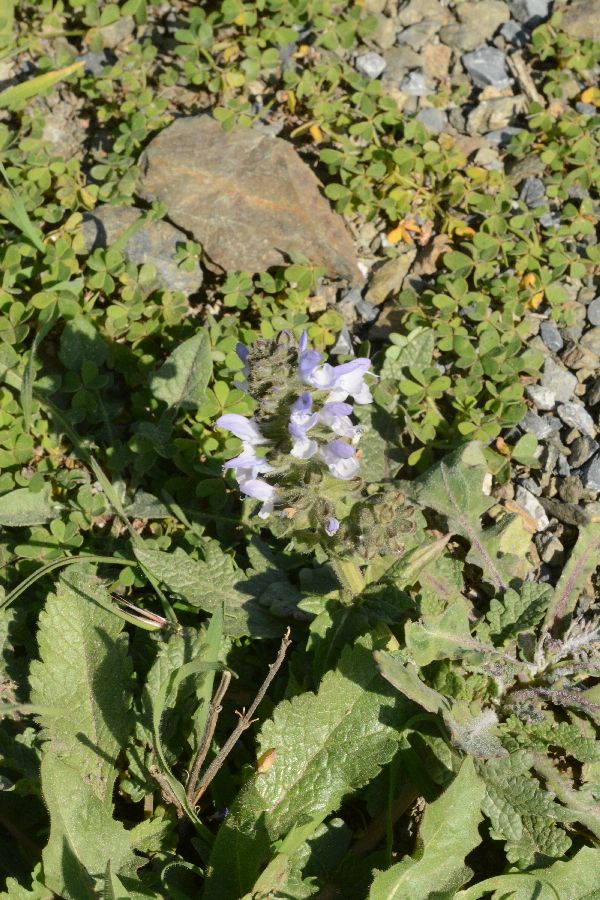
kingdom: Plantae
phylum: Tracheophyta
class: Magnoliopsida
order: Lamiales
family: Lamiaceae
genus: Salvia
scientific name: Salvia verbenaca
